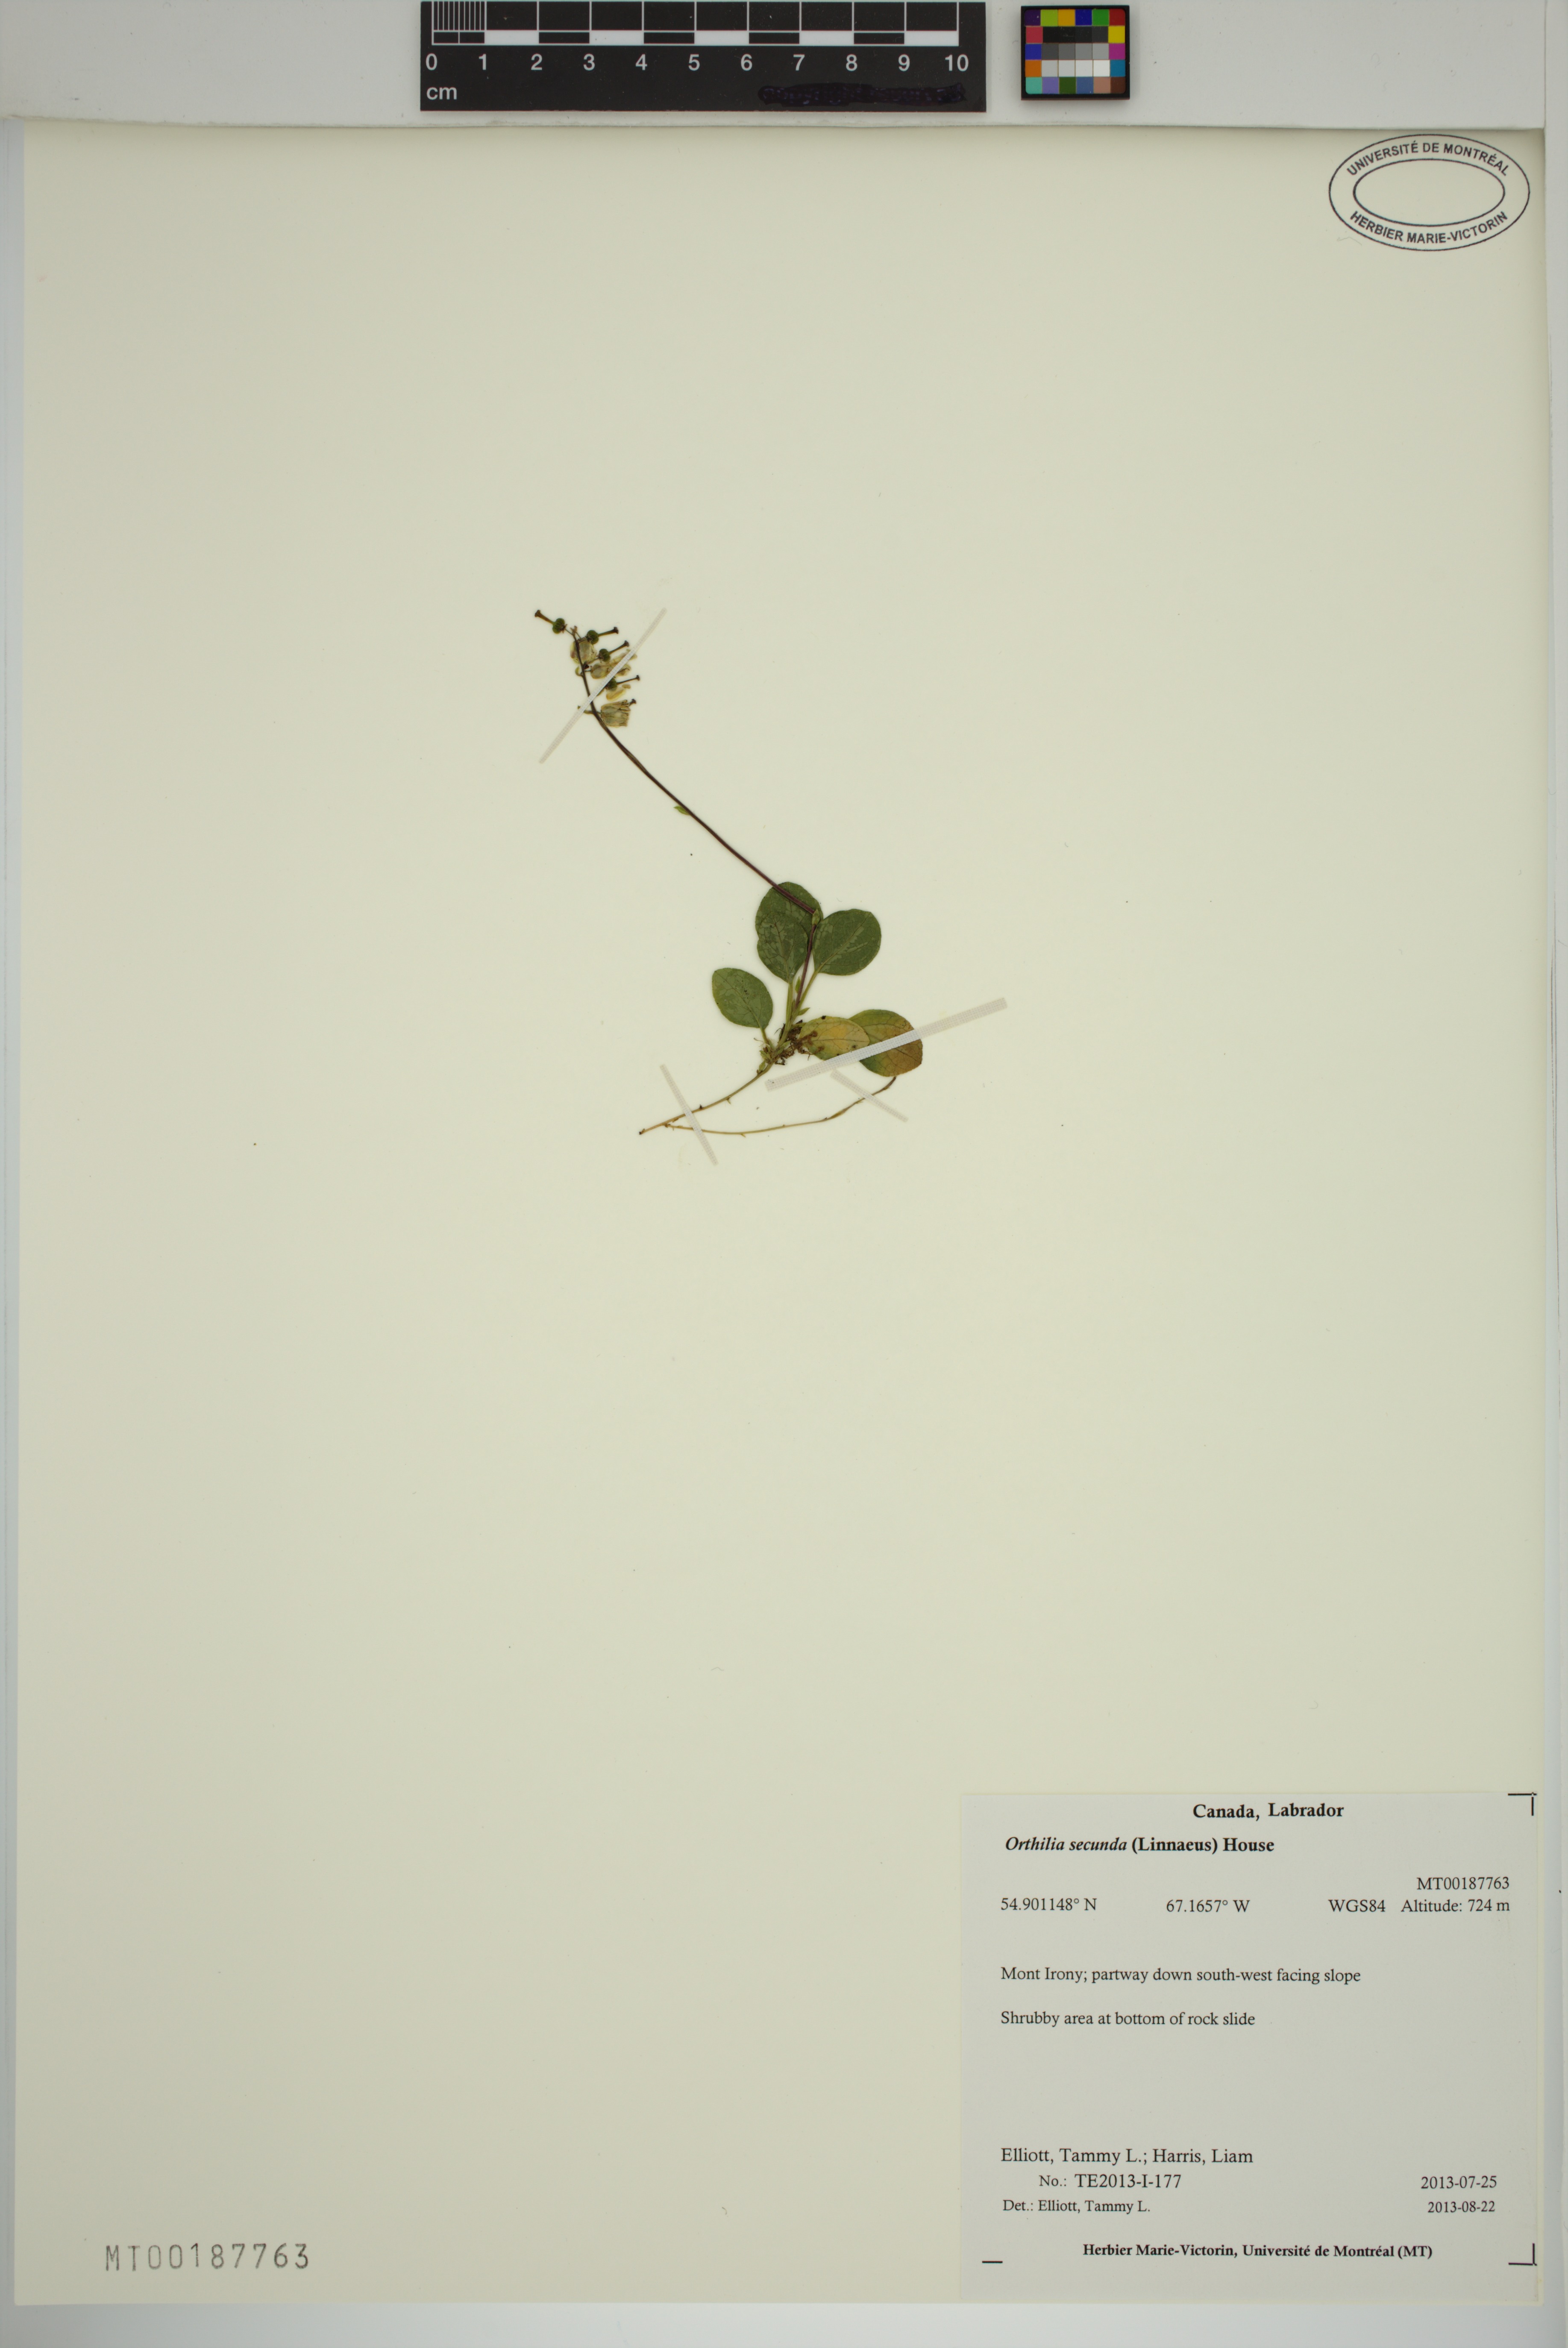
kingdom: Plantae
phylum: Tracheophyta
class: Magnoliopsida
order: Ericales
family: Ericaceae
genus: Orthilia
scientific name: Orthilia secunda
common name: One-sided orthilia
